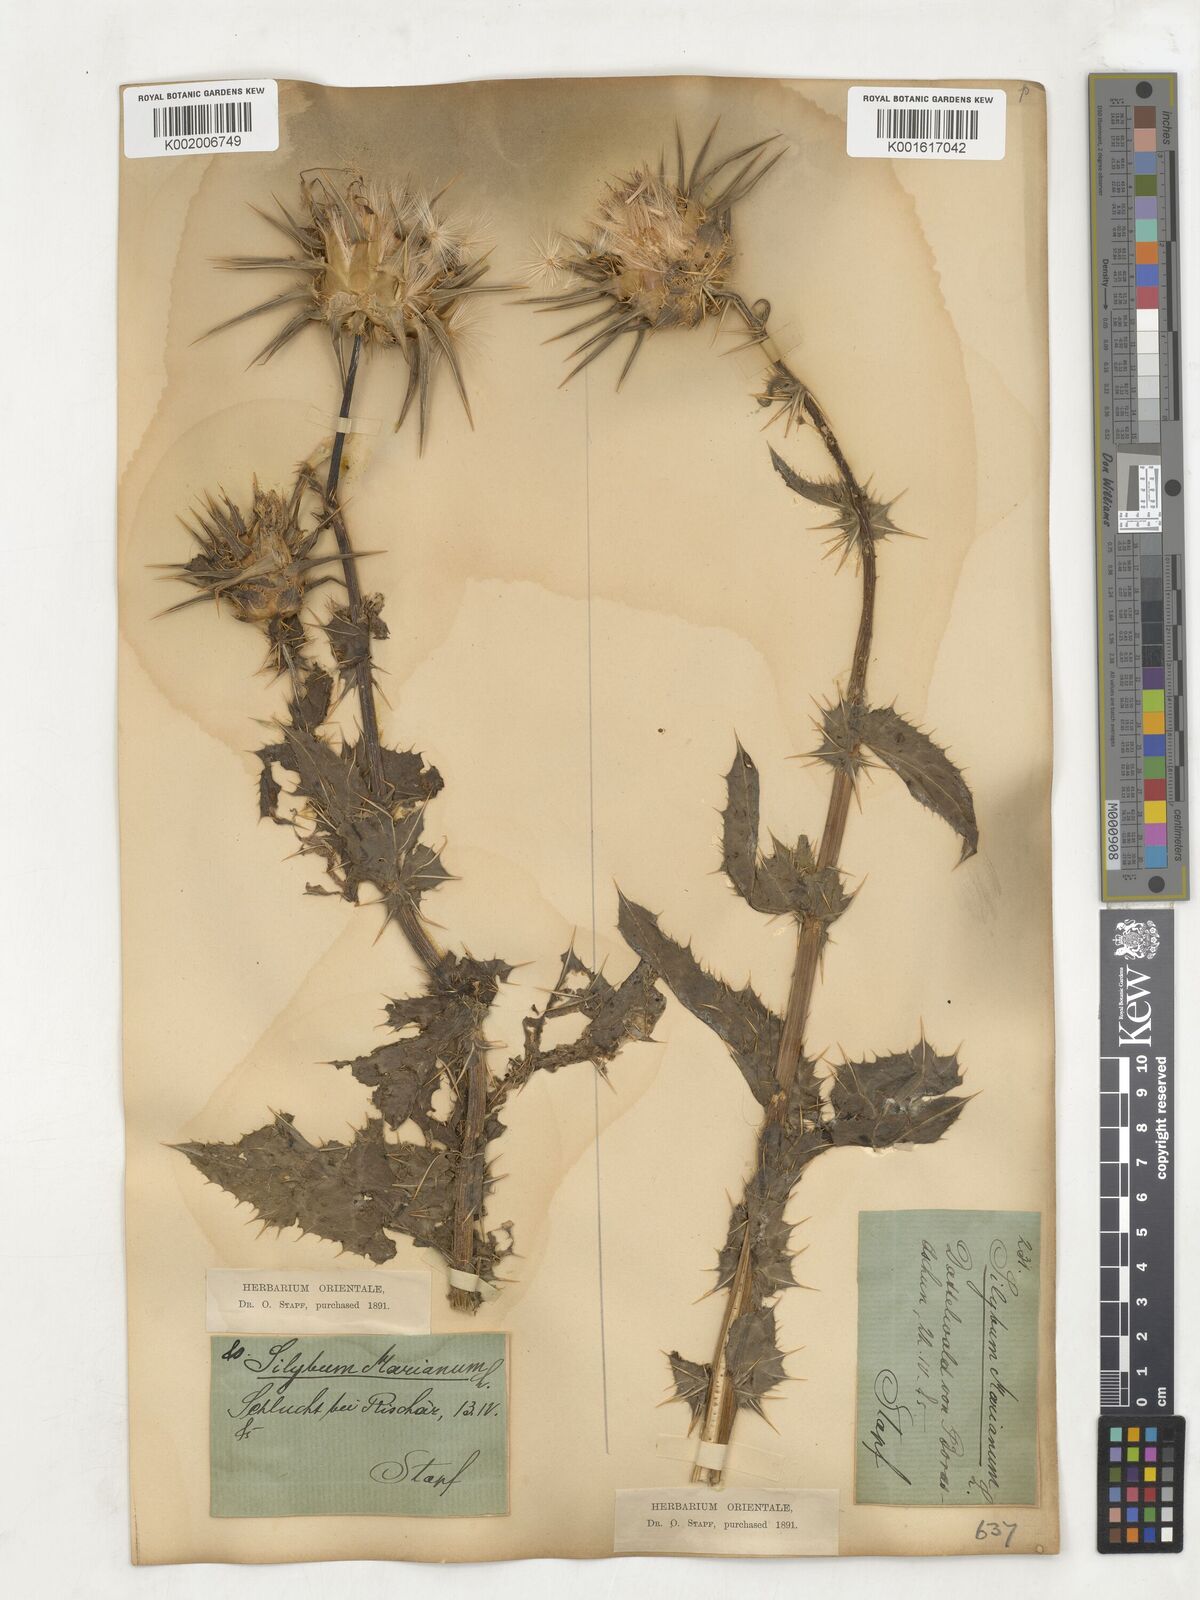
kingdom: Plantae
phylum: Tracheophyta
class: Magnoliopsida
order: Asterales
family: Asteraceae
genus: Silybum
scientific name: Silybum marianum
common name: Milk thistle
